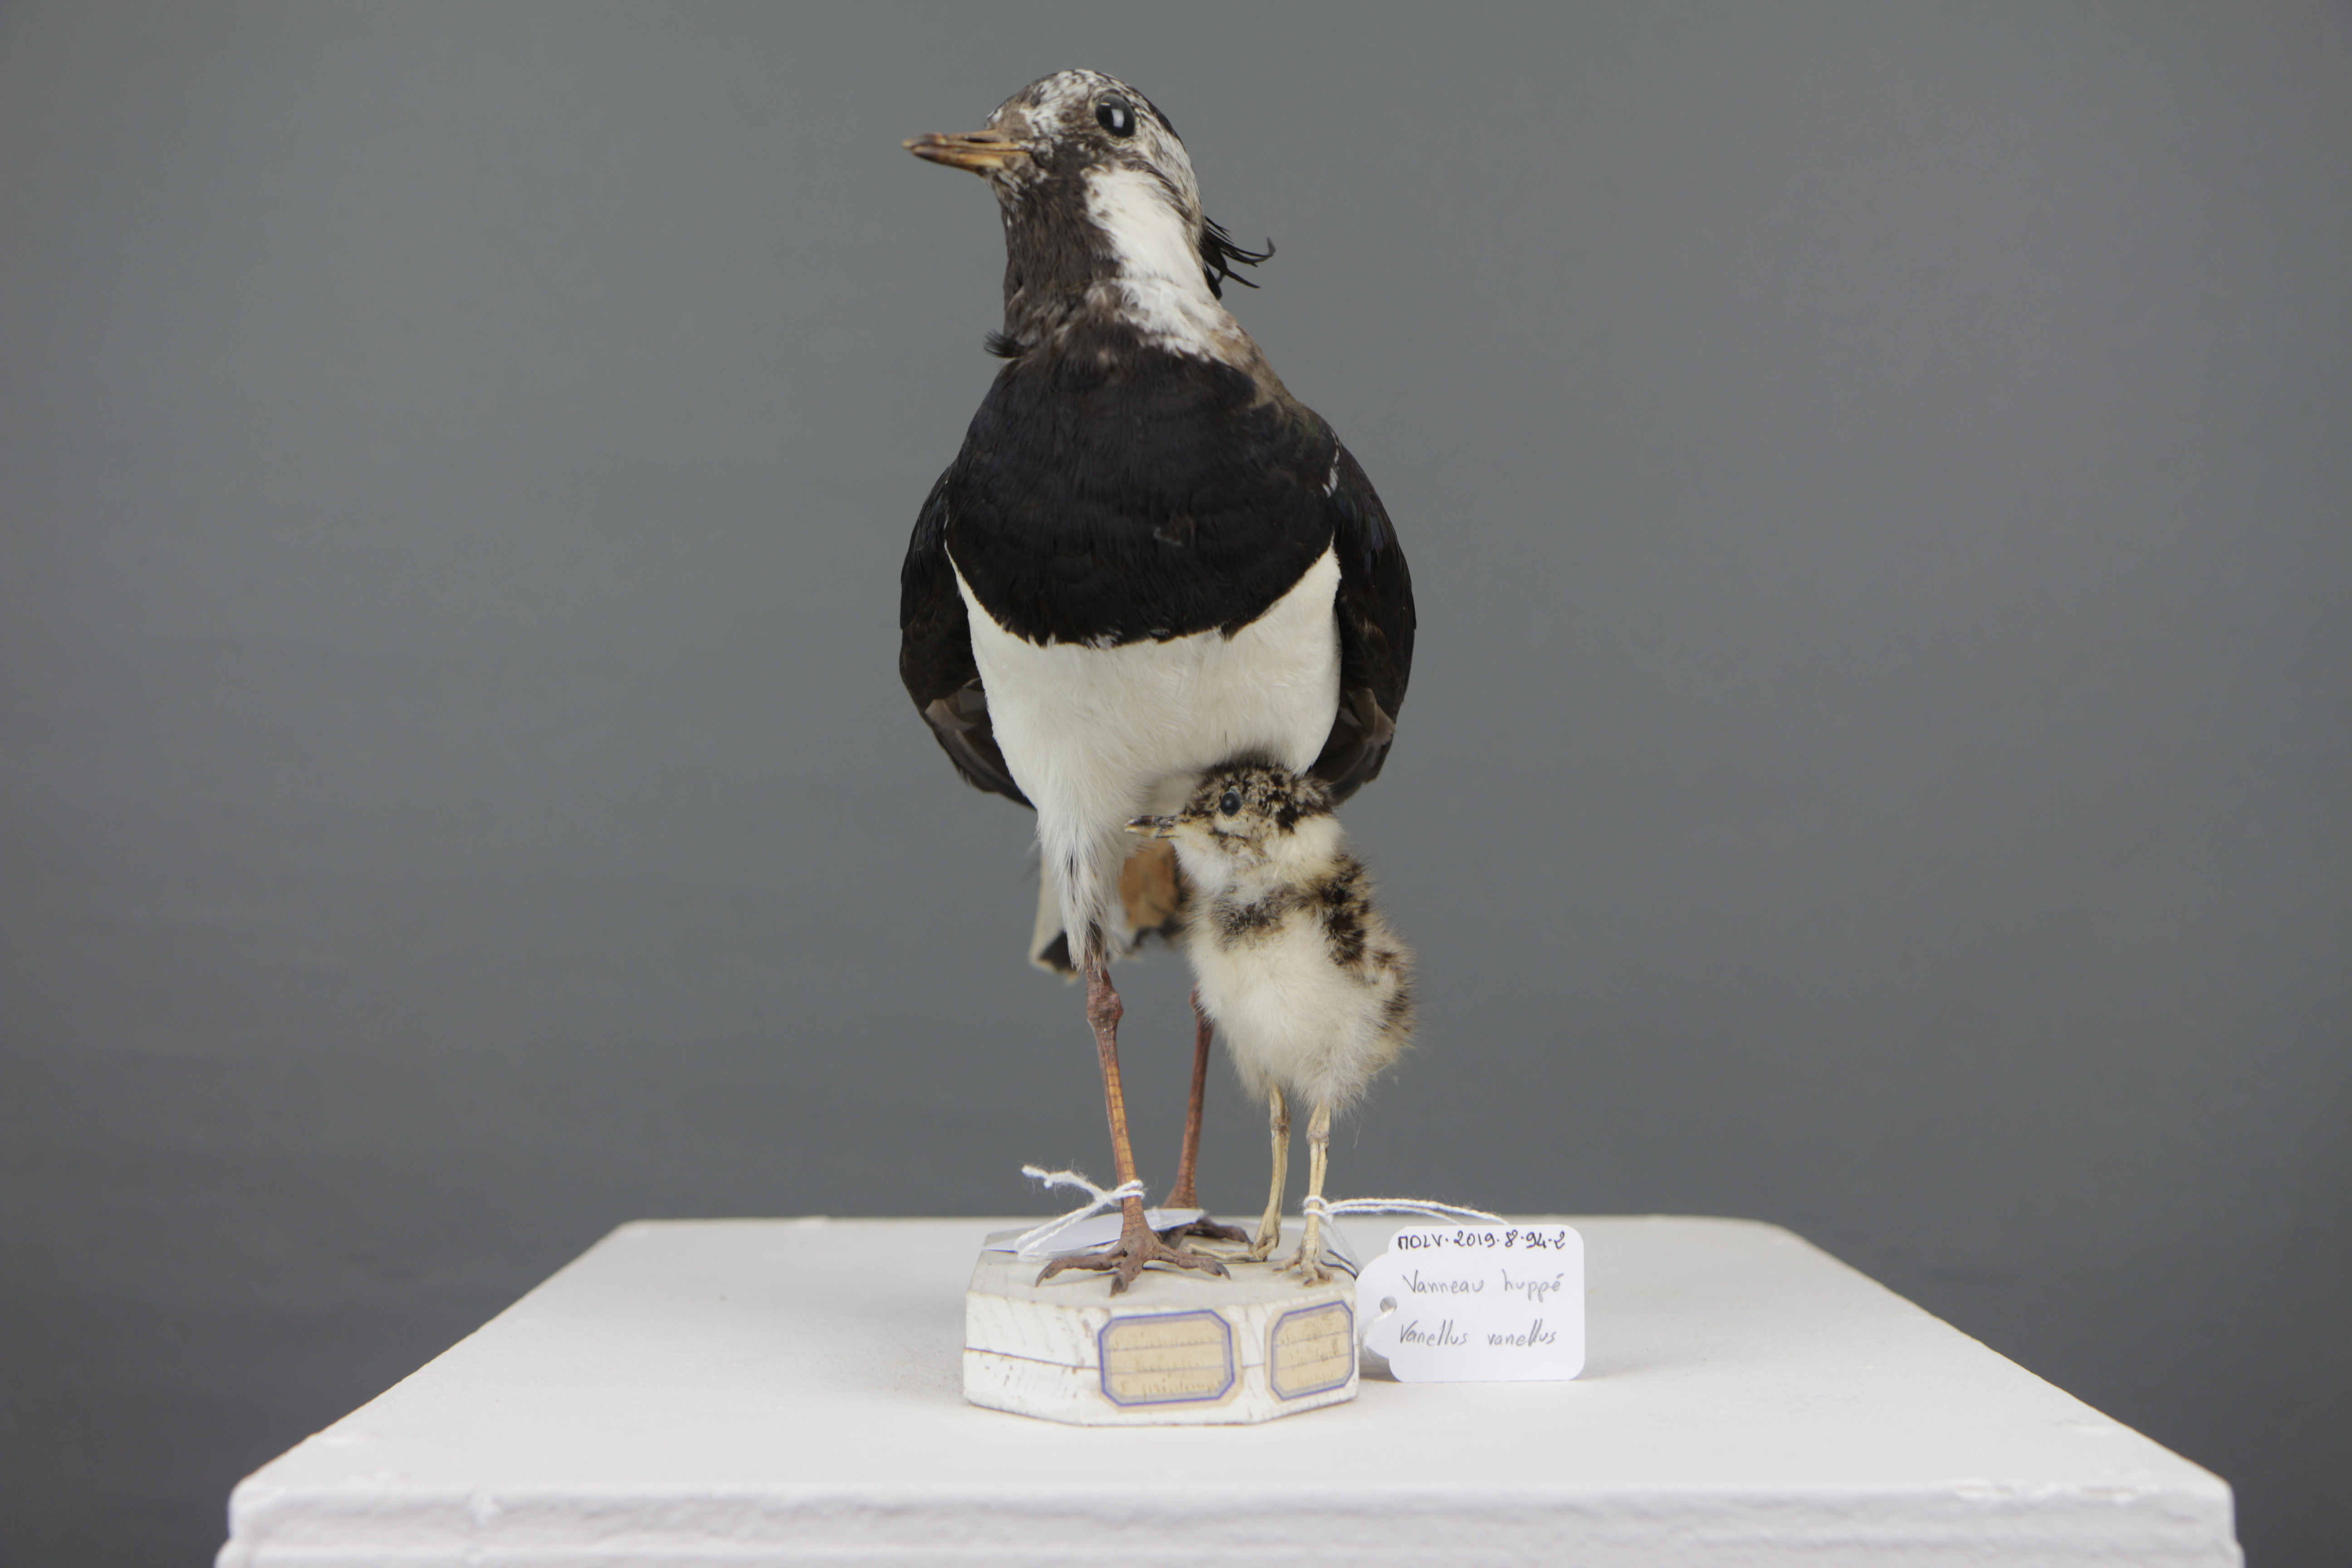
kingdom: Animalia
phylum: Chordata
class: Aves
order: Charadriiformes
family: Charadriidae
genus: Vanellus
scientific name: Vanellus vanellus
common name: Northern lapwing
